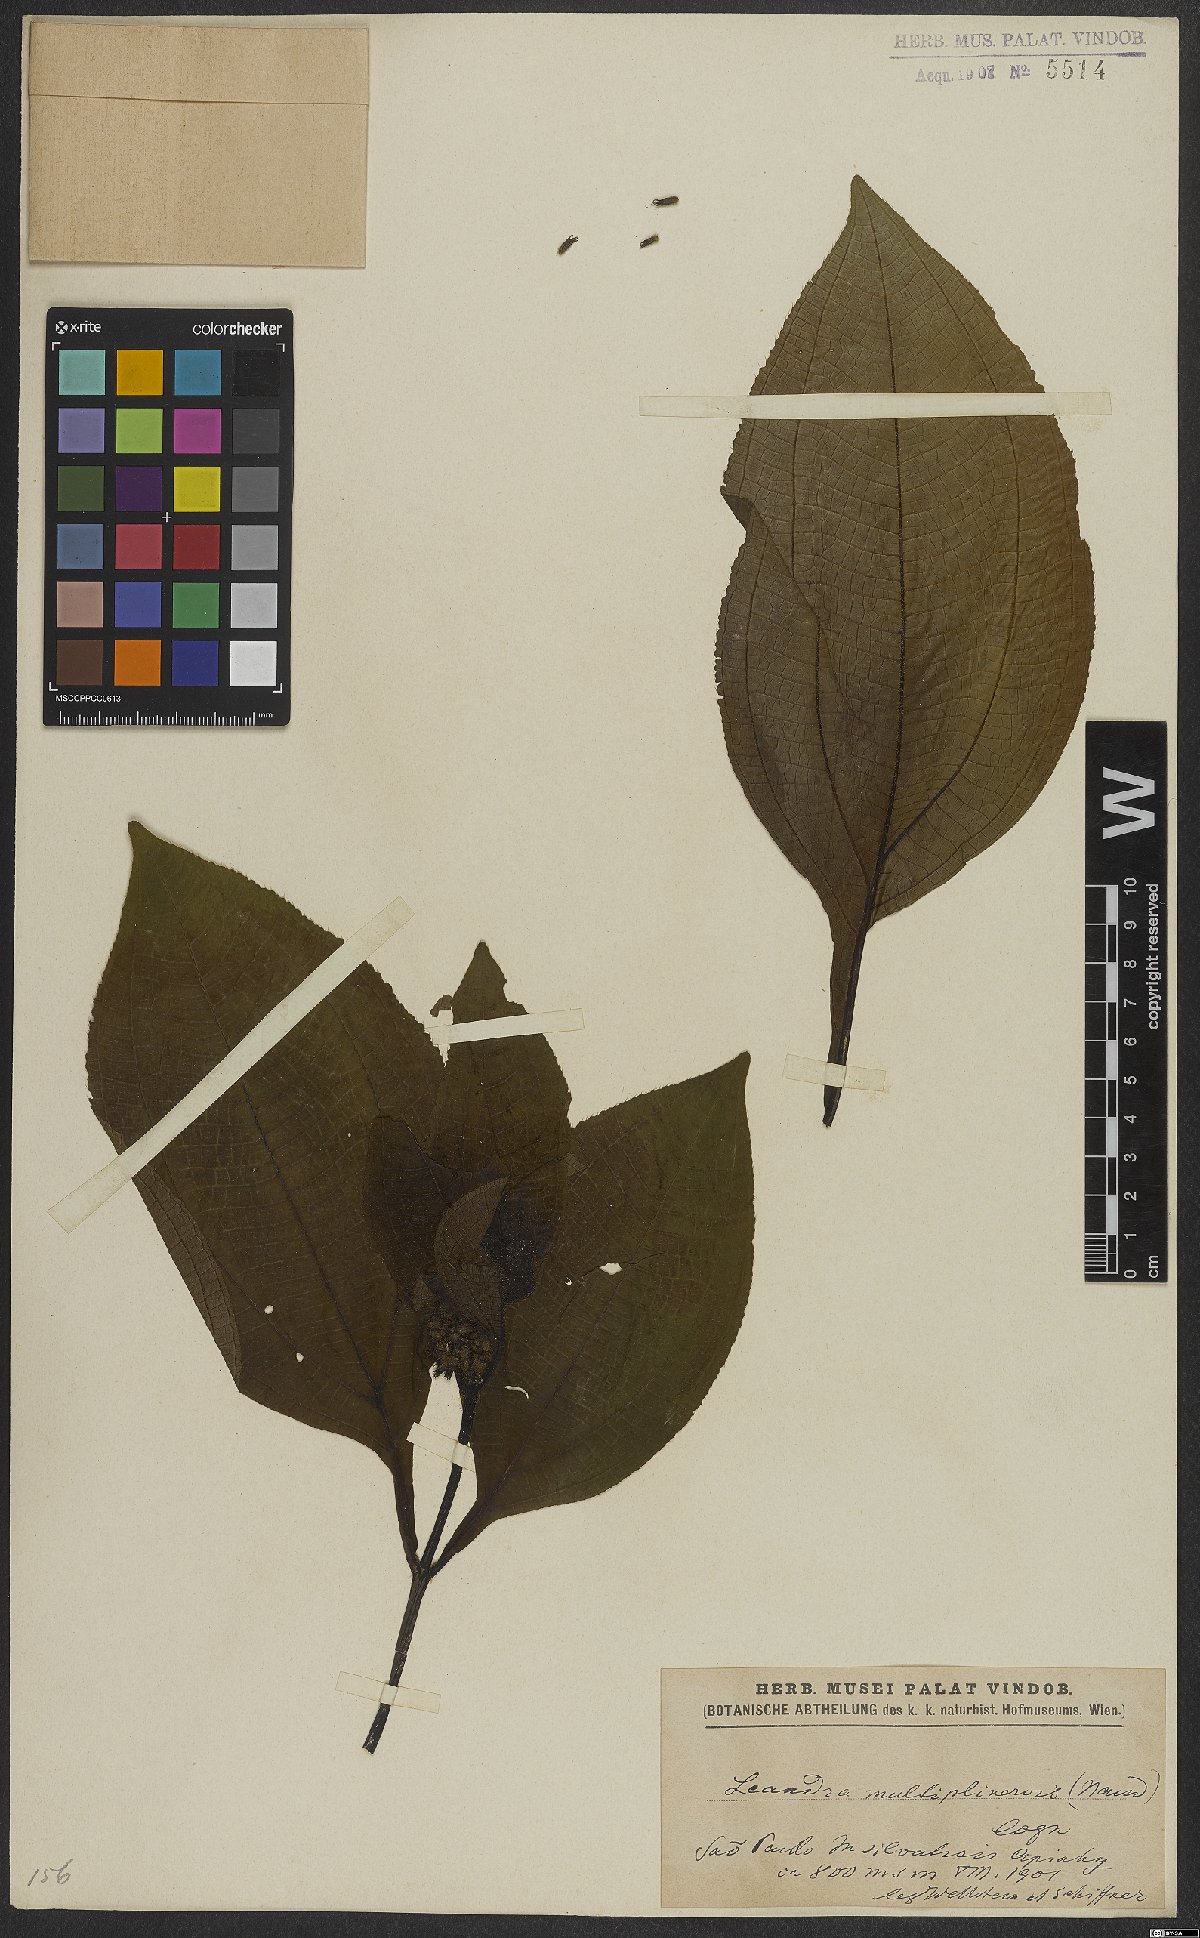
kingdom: Plantae
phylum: Tracheophyta
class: Magnoliopsida
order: Myrtales
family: Melastomataceae
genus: Miconia
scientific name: Miconia oocarpa
